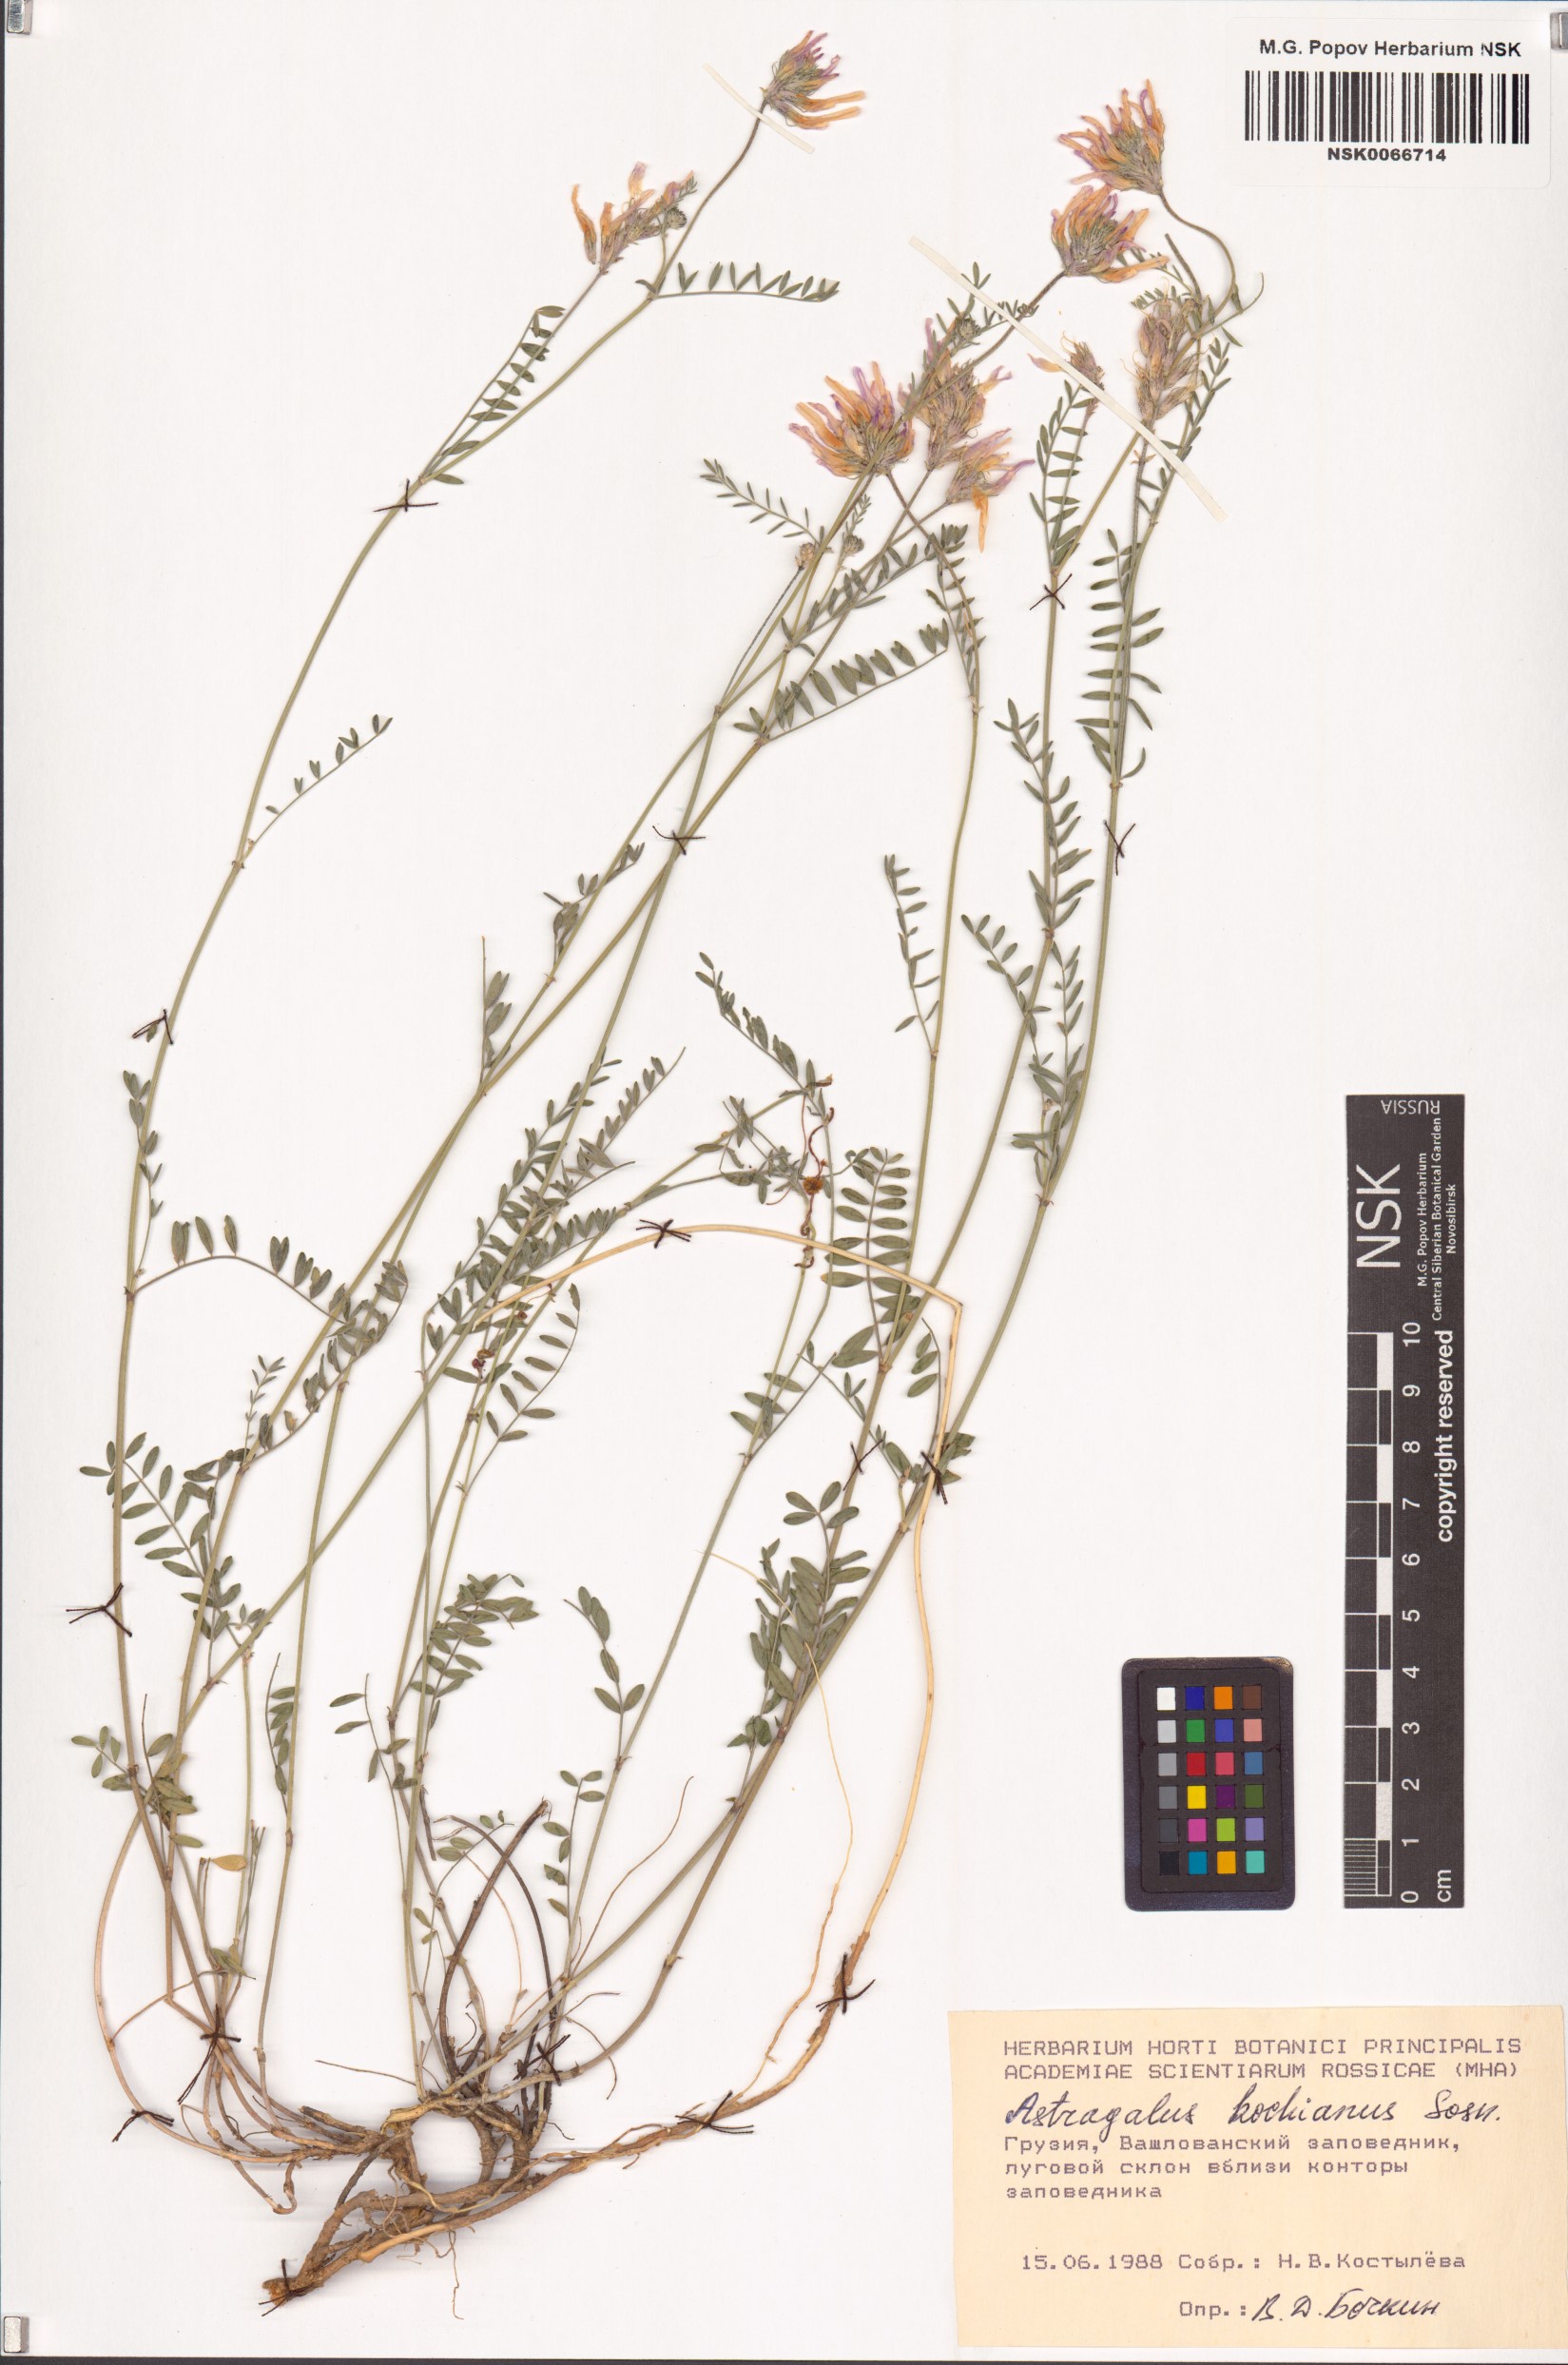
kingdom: Plantae
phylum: Tracheophyta
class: Magnoliopsida
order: Fabales
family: Fabaceae
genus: Astragalus
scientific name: Astragalus stevenianus
